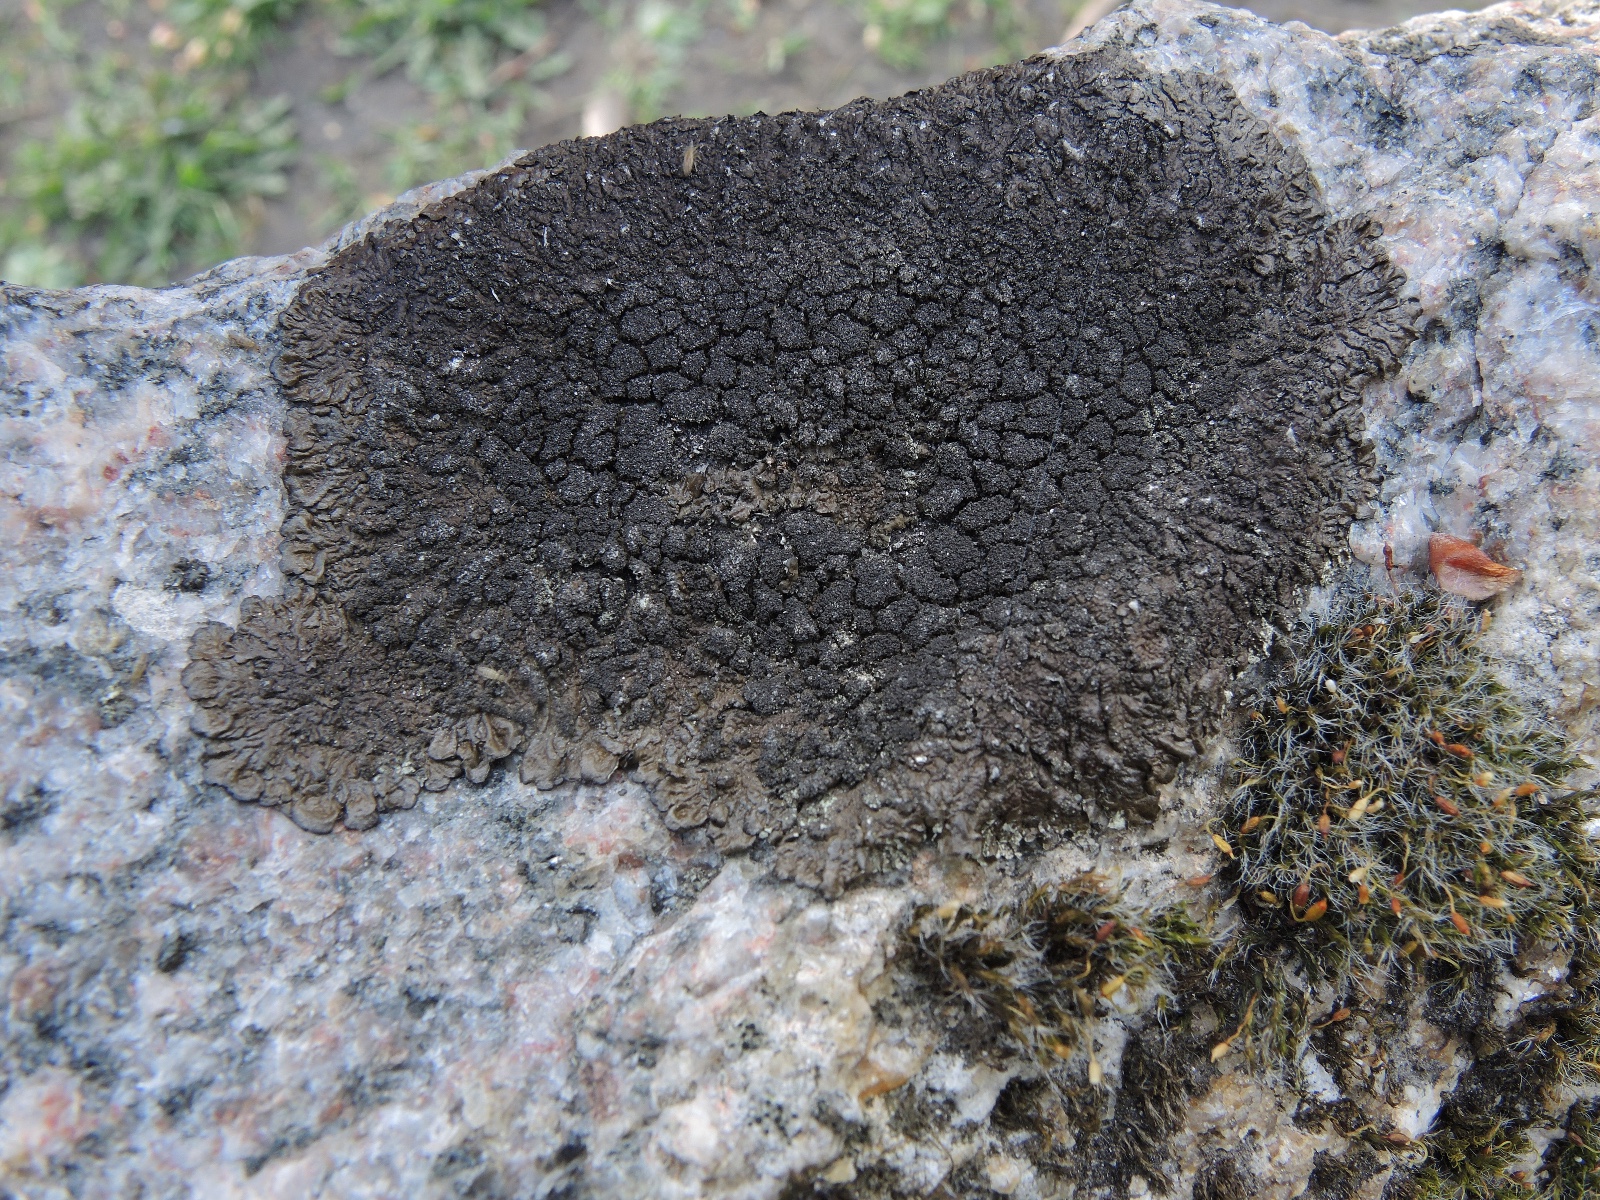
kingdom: Fungi
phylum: Ascomycota
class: Lecanoromycetes
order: Lecanorales
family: Parmeliaceae
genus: Melanelixia
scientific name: Melanelixia fuliginosa
